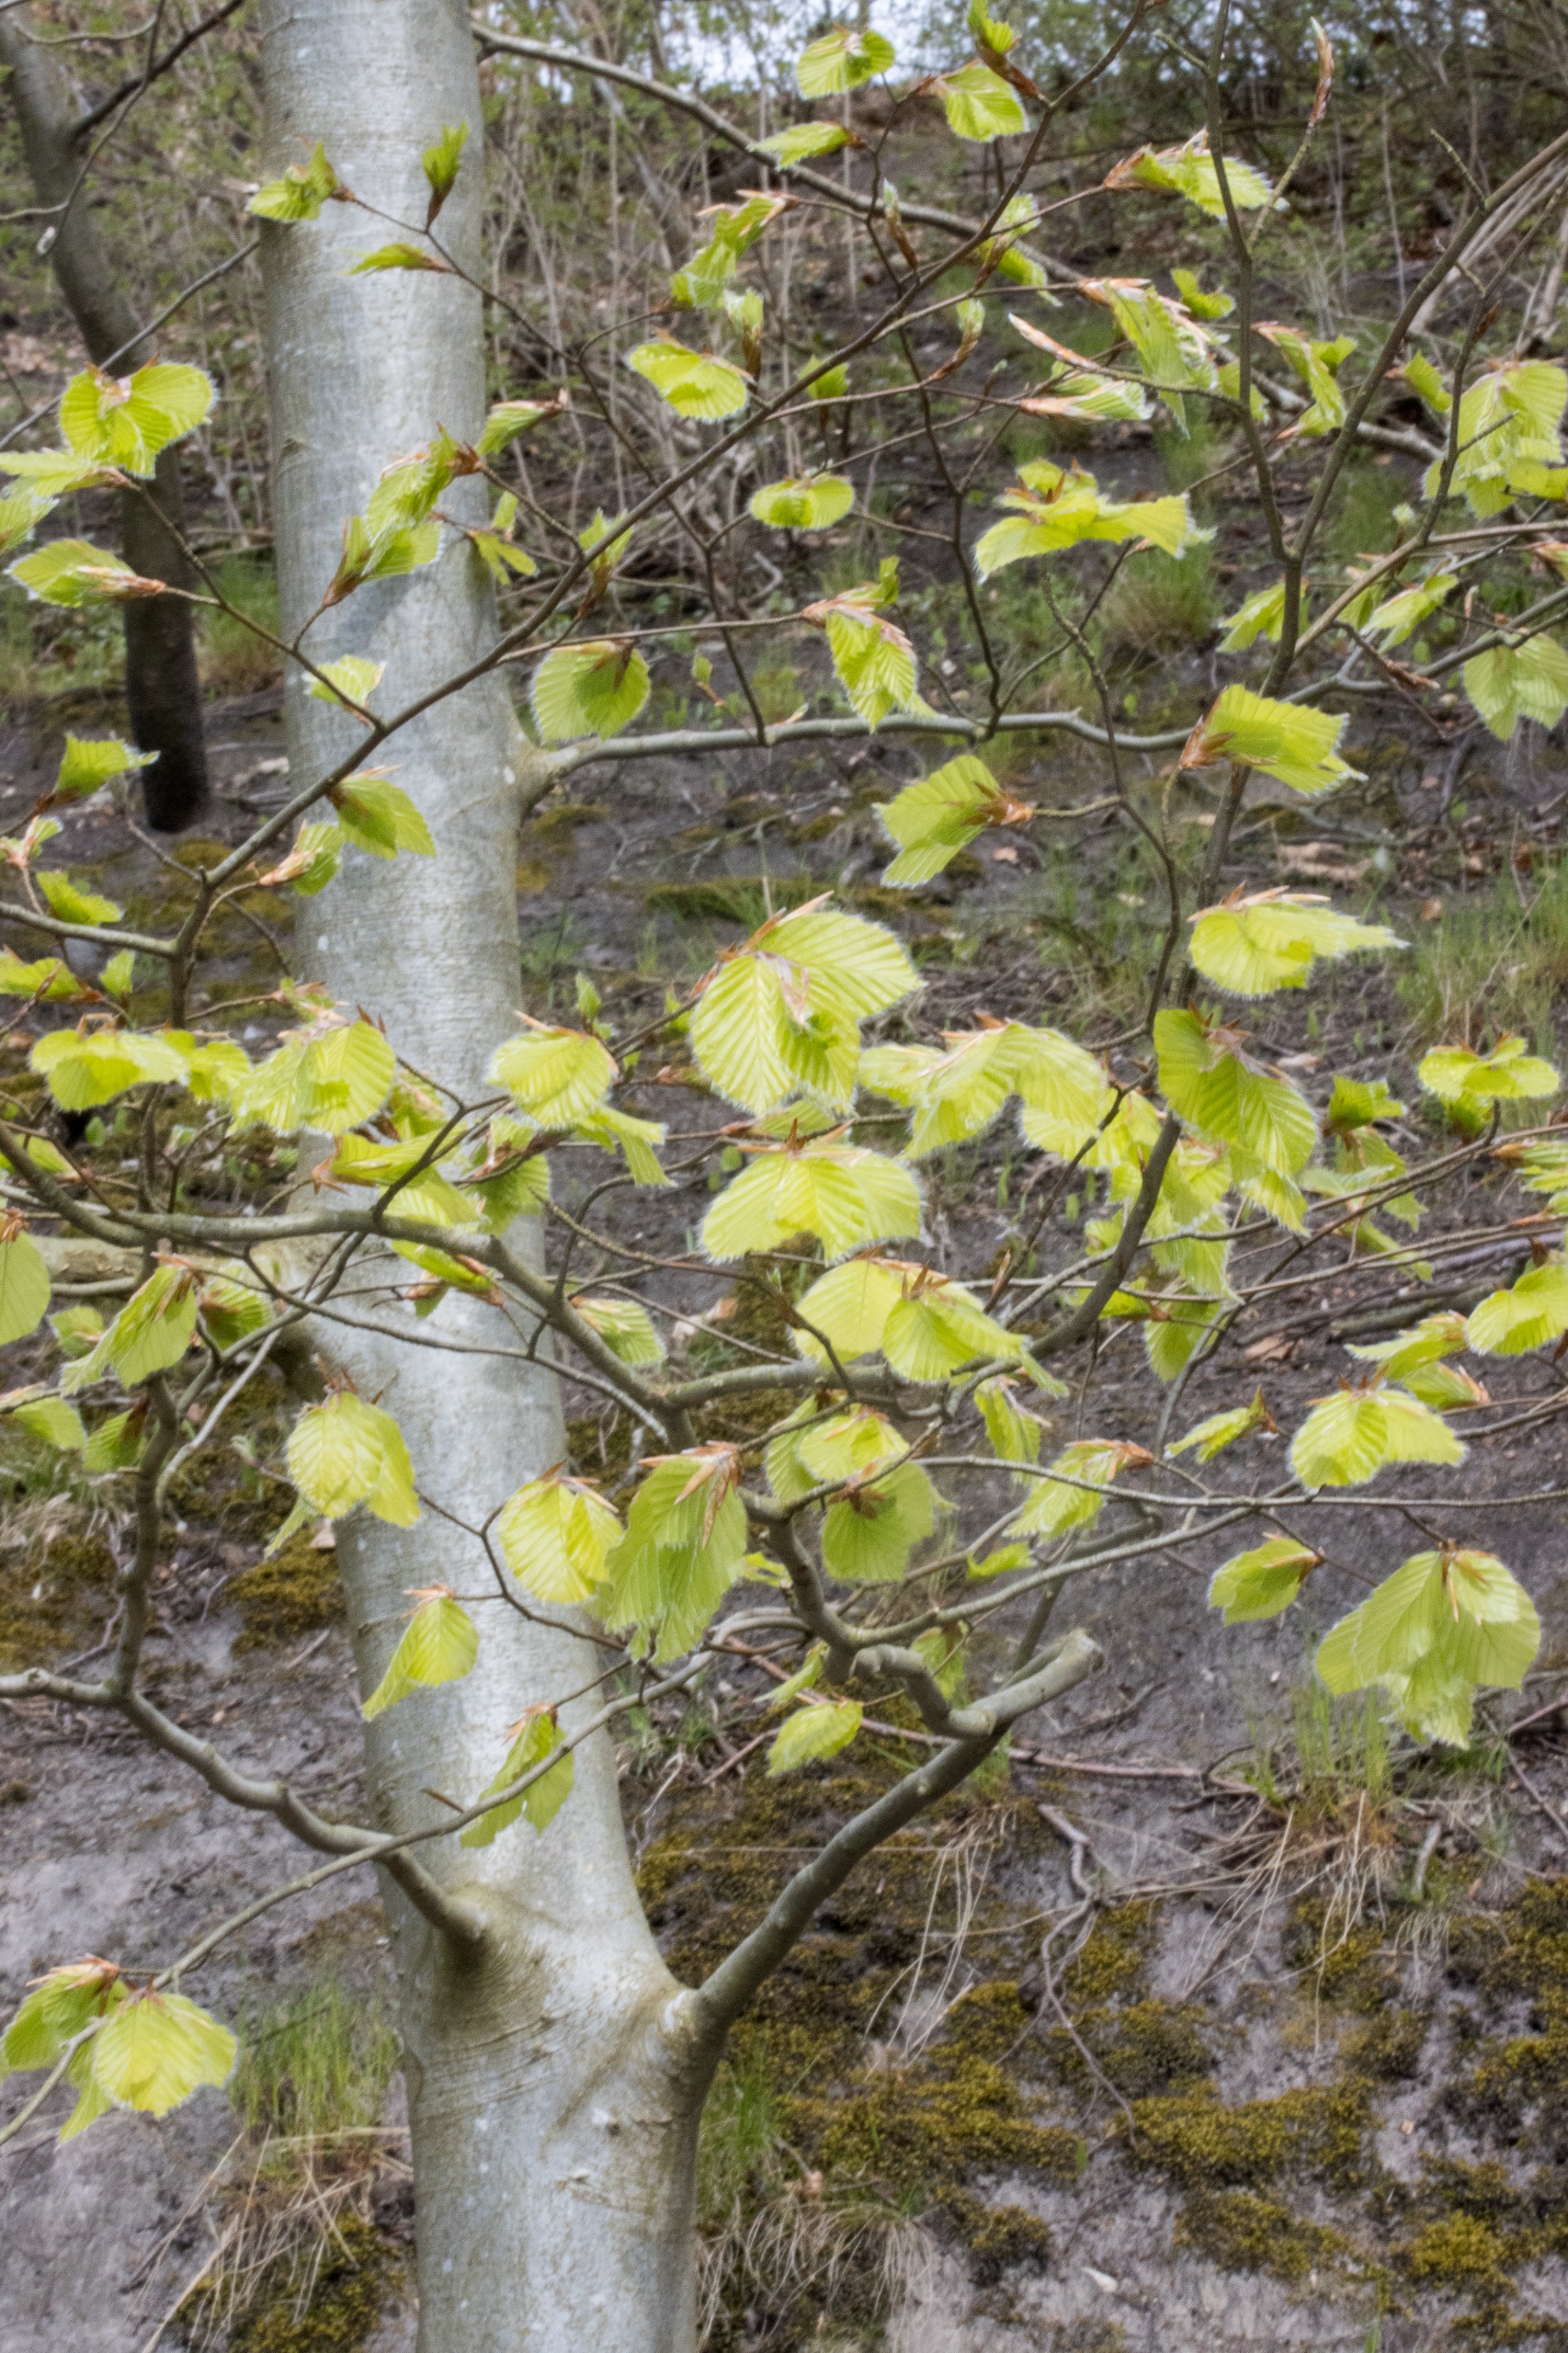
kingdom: Plantae
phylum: Tracheophyta
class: Magnoliopsida
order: Fagales
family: Fagaceae
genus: Fagus
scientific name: Fagus sylvatica
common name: Bøg
